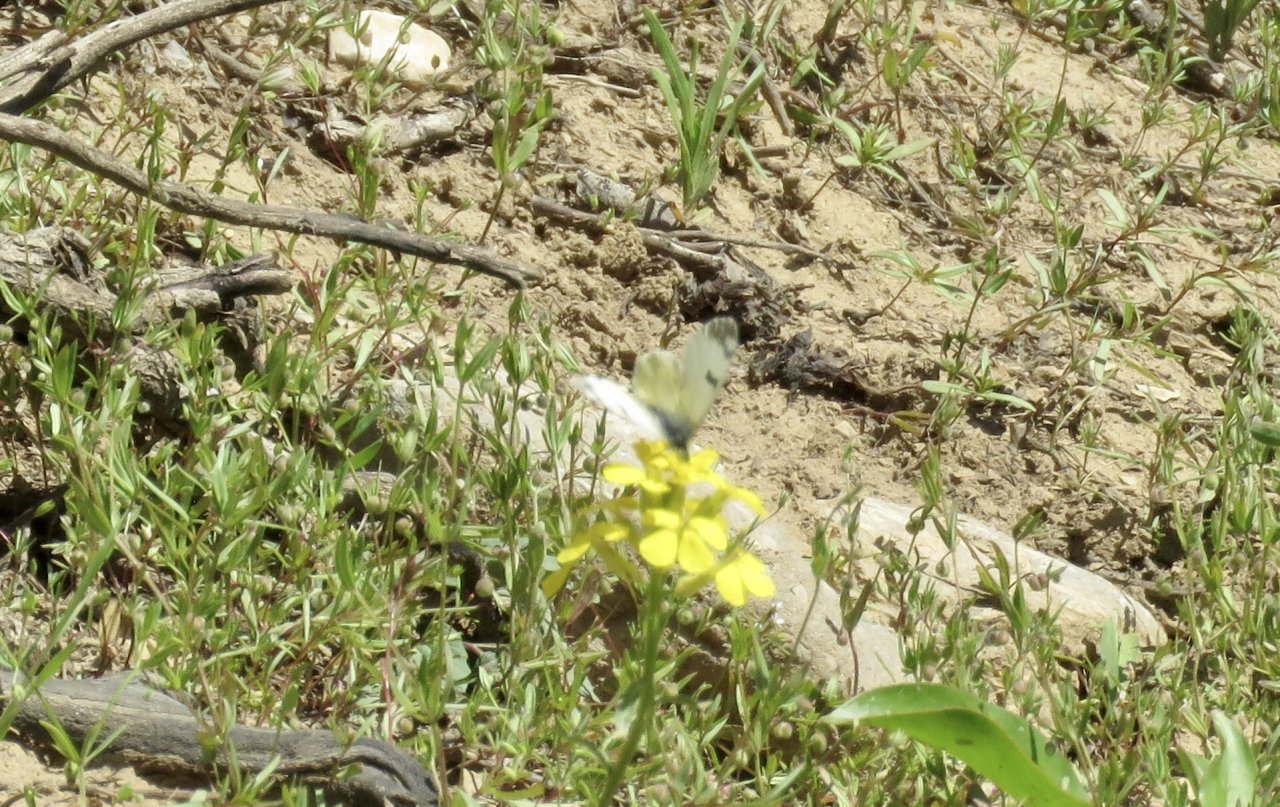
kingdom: Animalia
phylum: Arthropoda
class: Insecta
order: Lepidoptera
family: Pieridae
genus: Euchloe
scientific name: Euchloe lotta
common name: Desert Marble
